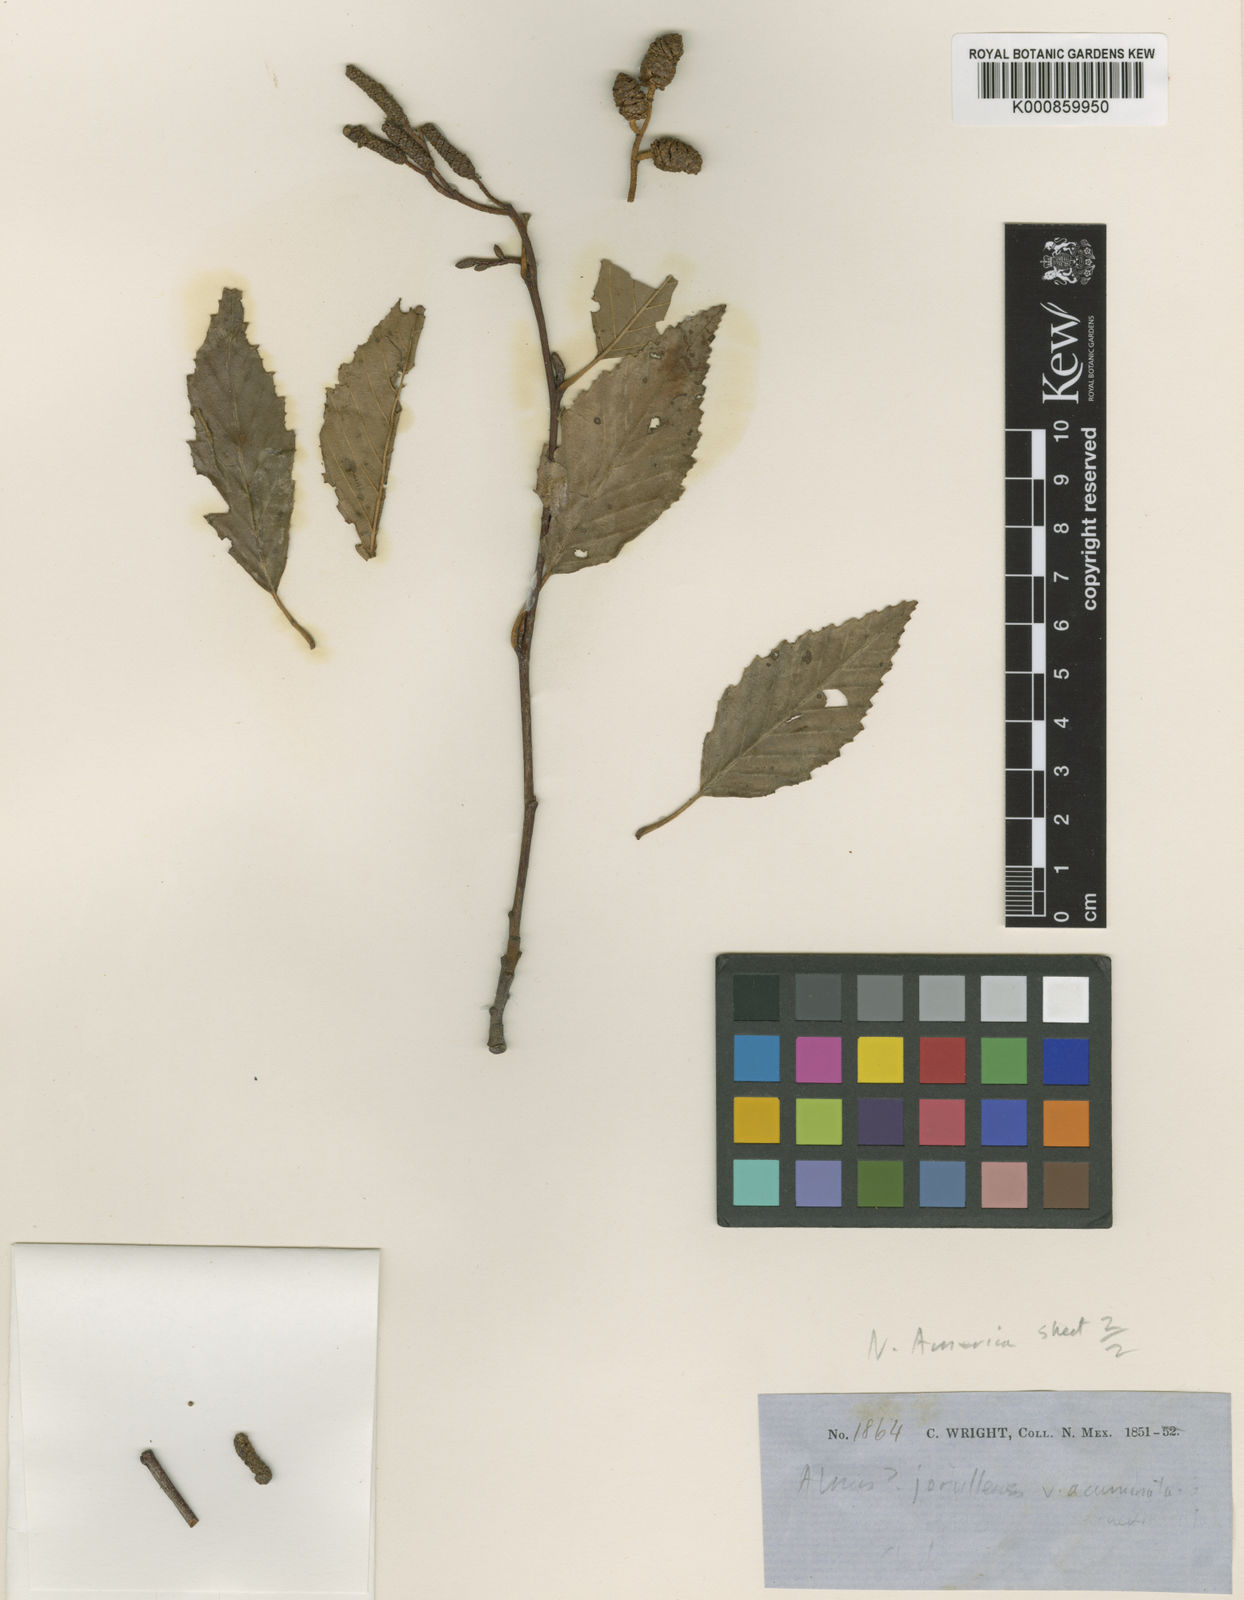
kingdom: Plantae
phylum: Tracheophyta
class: Magnoliopsida
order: Fagales
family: Betulaceae
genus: Alnus
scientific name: Alnus oblongifolia
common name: Arizona alder
